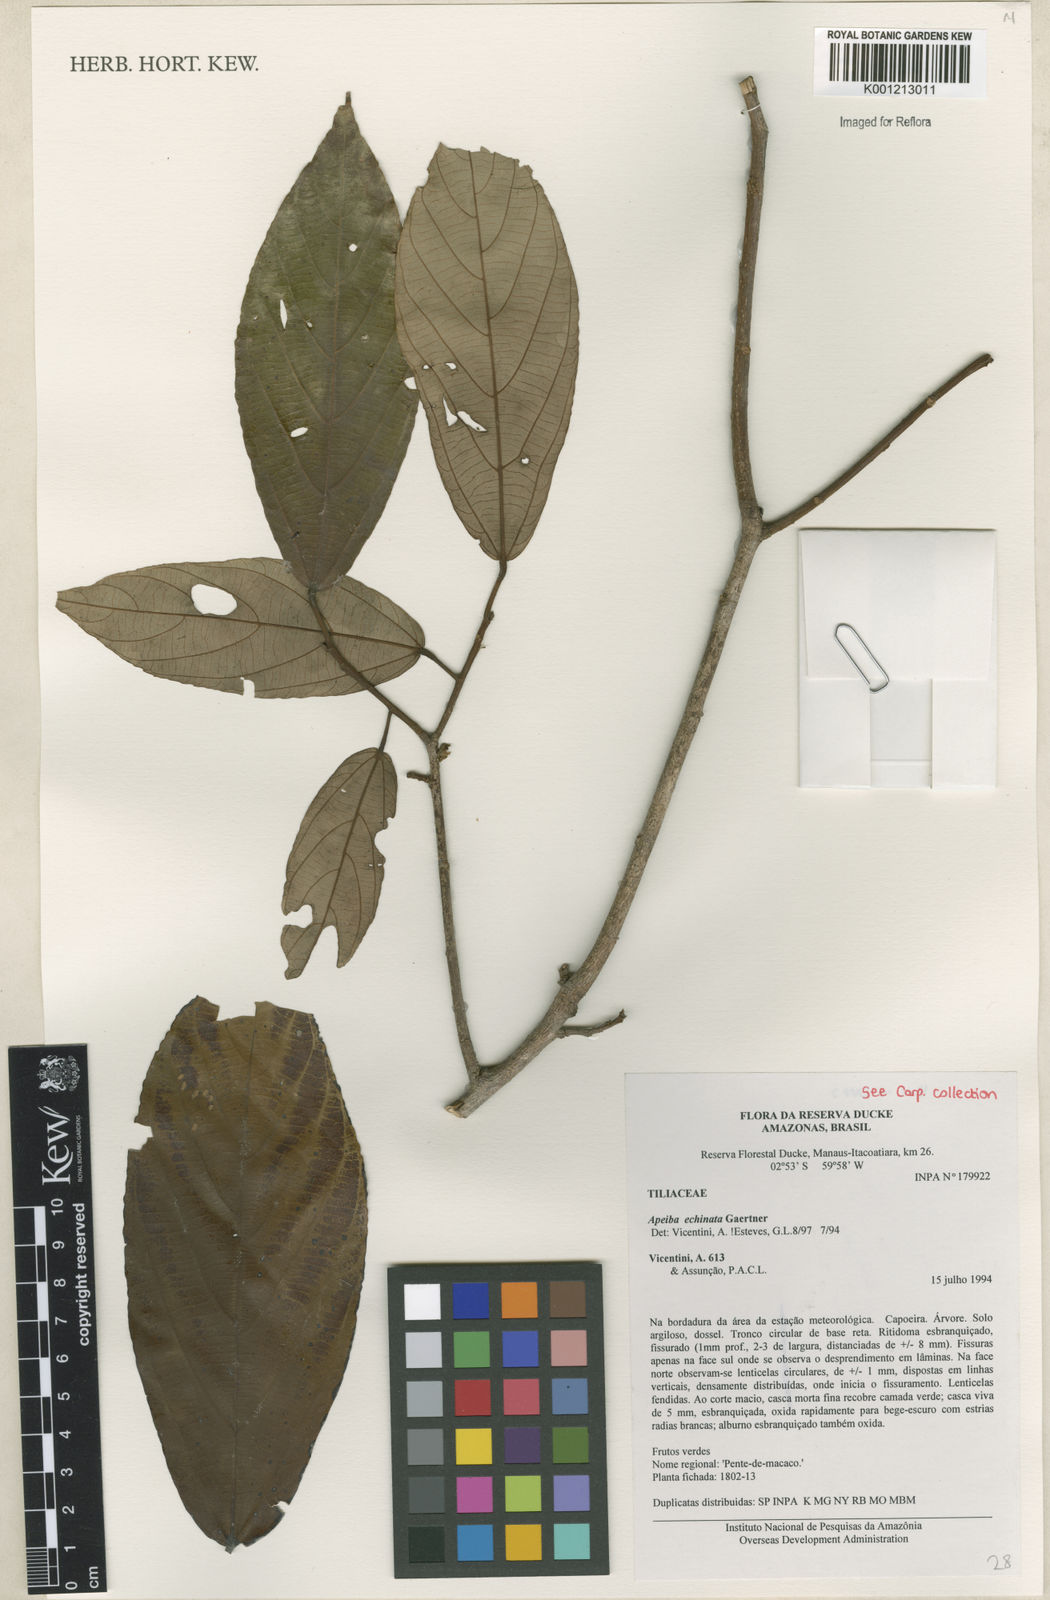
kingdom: Plantae
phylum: Tracheophyta
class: Magnoliopsida
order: Malvales
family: Malvaceae
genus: Apeiba
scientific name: Apeiba
